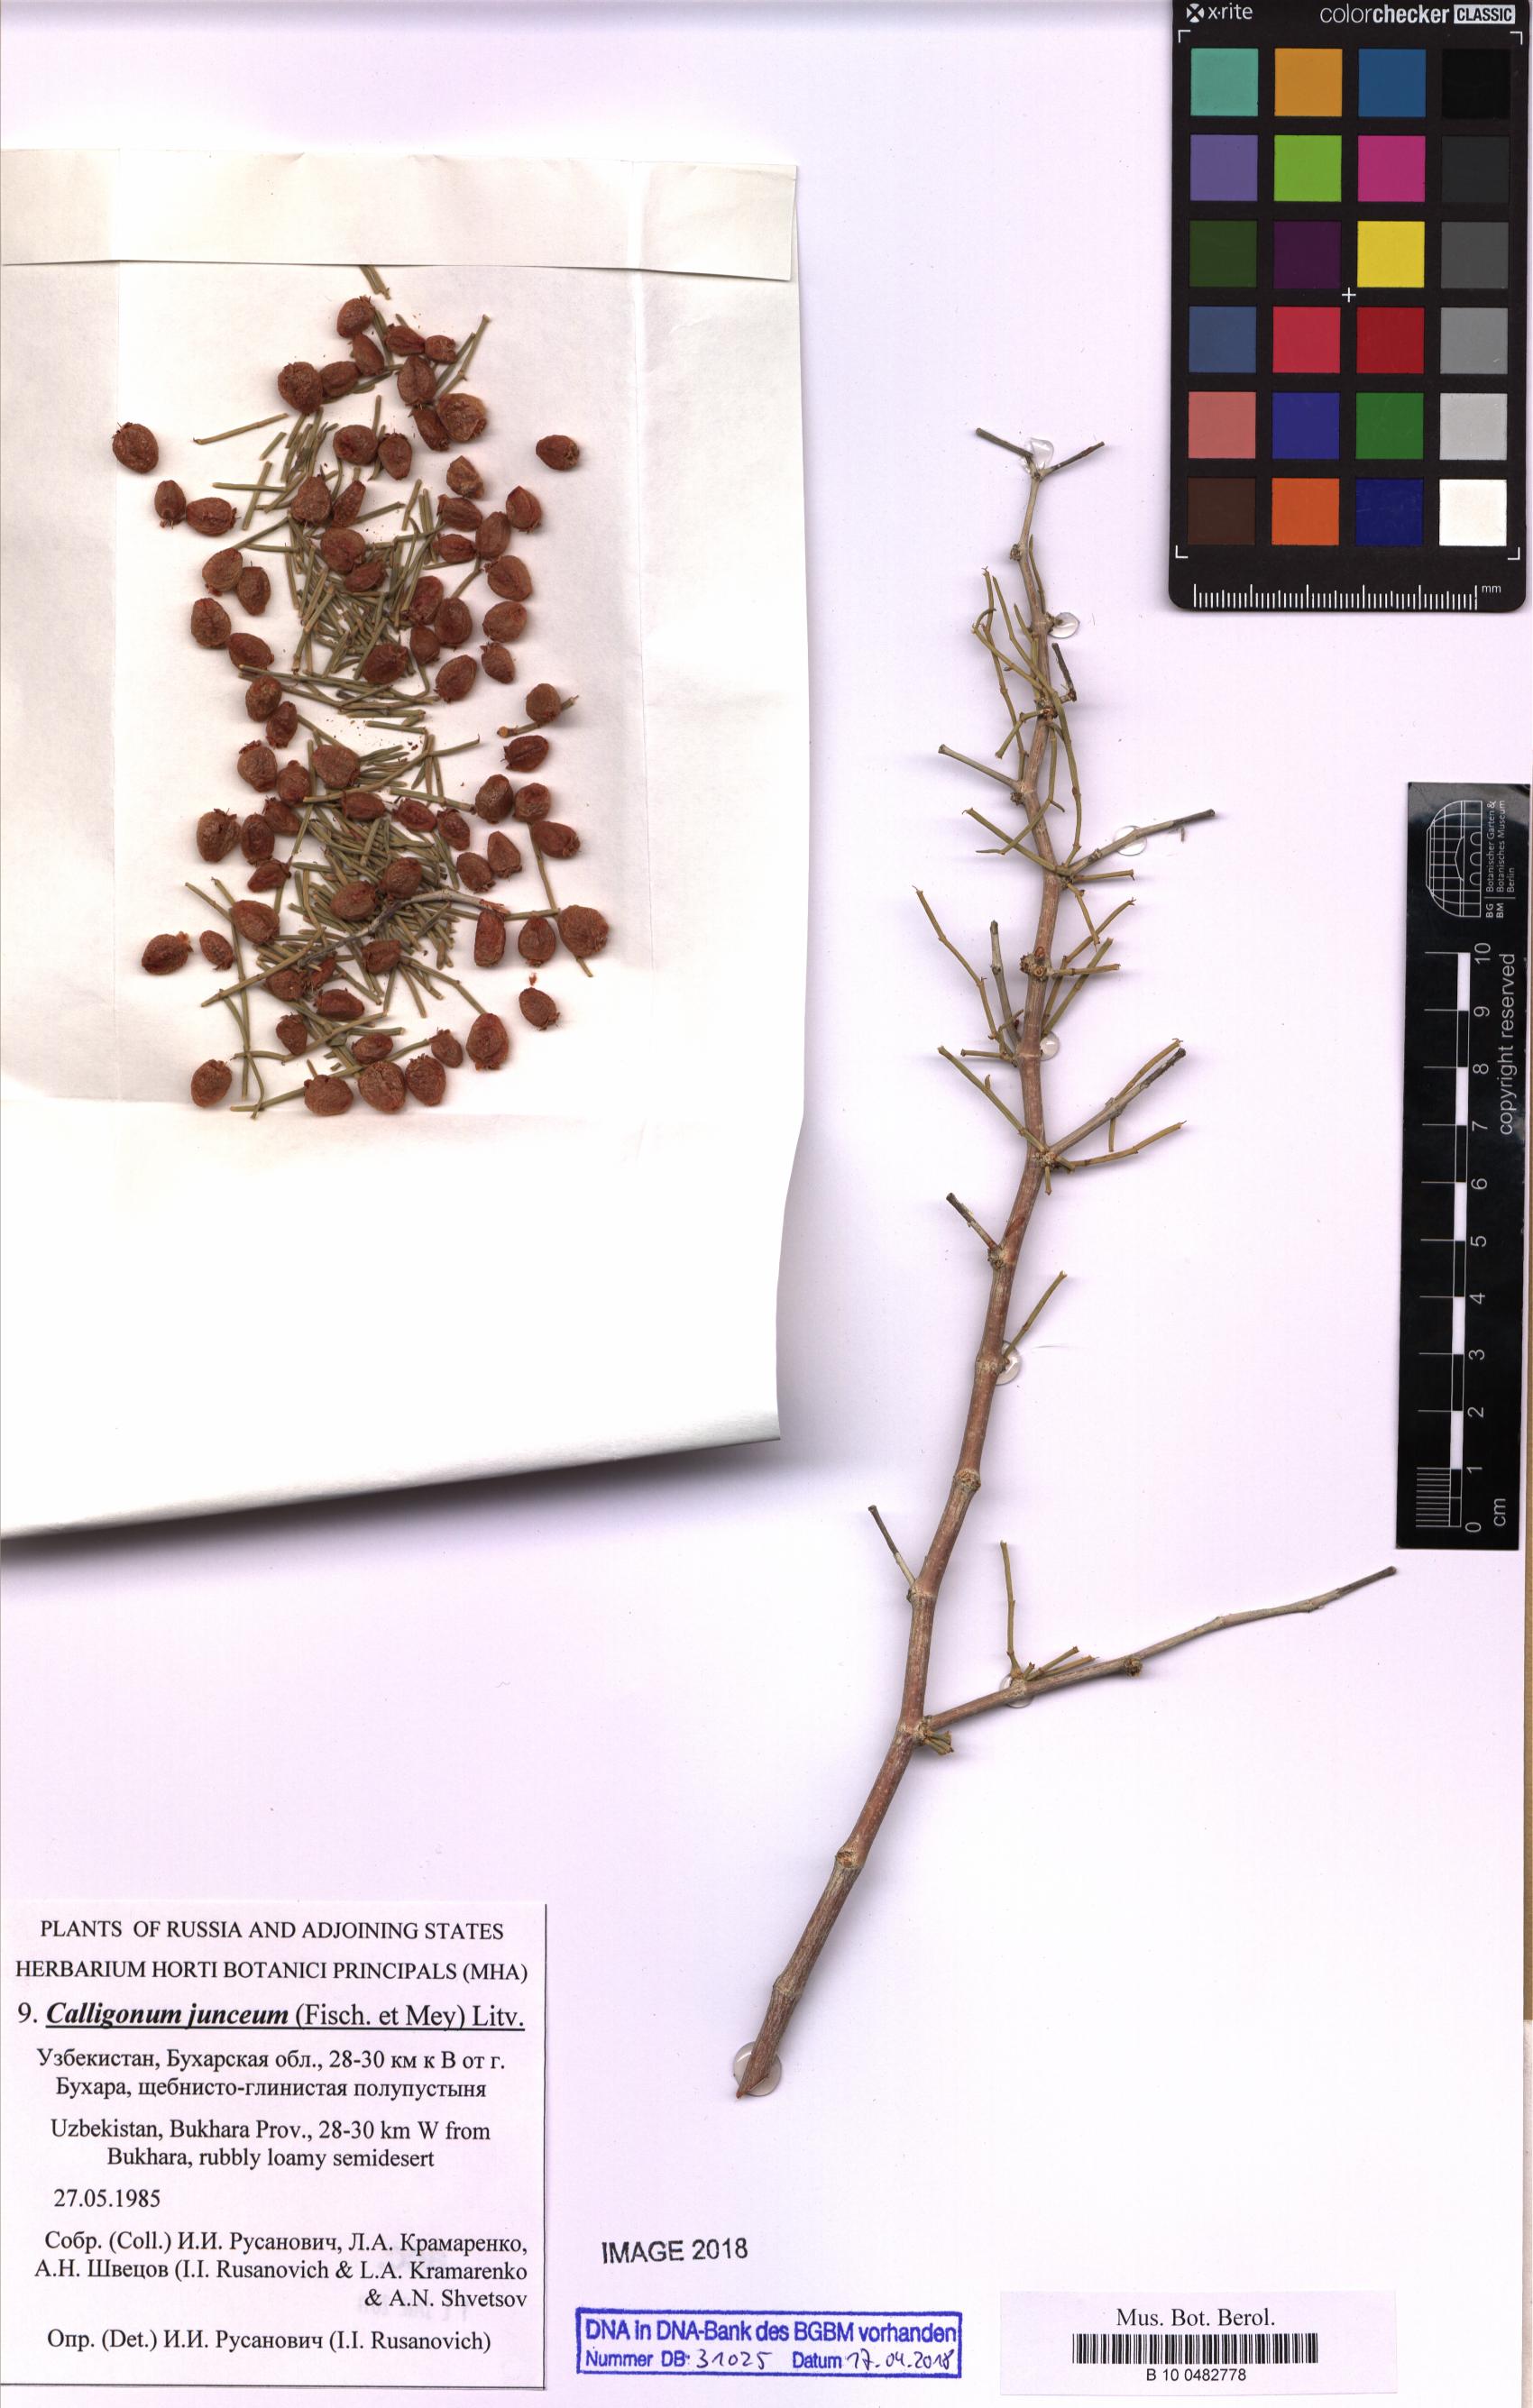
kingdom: Plantae
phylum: Tracheophyta
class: Magnoliopsida
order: Caryophyllales
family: Polygonaceae
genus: Calligonum
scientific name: Calligonum junceum
